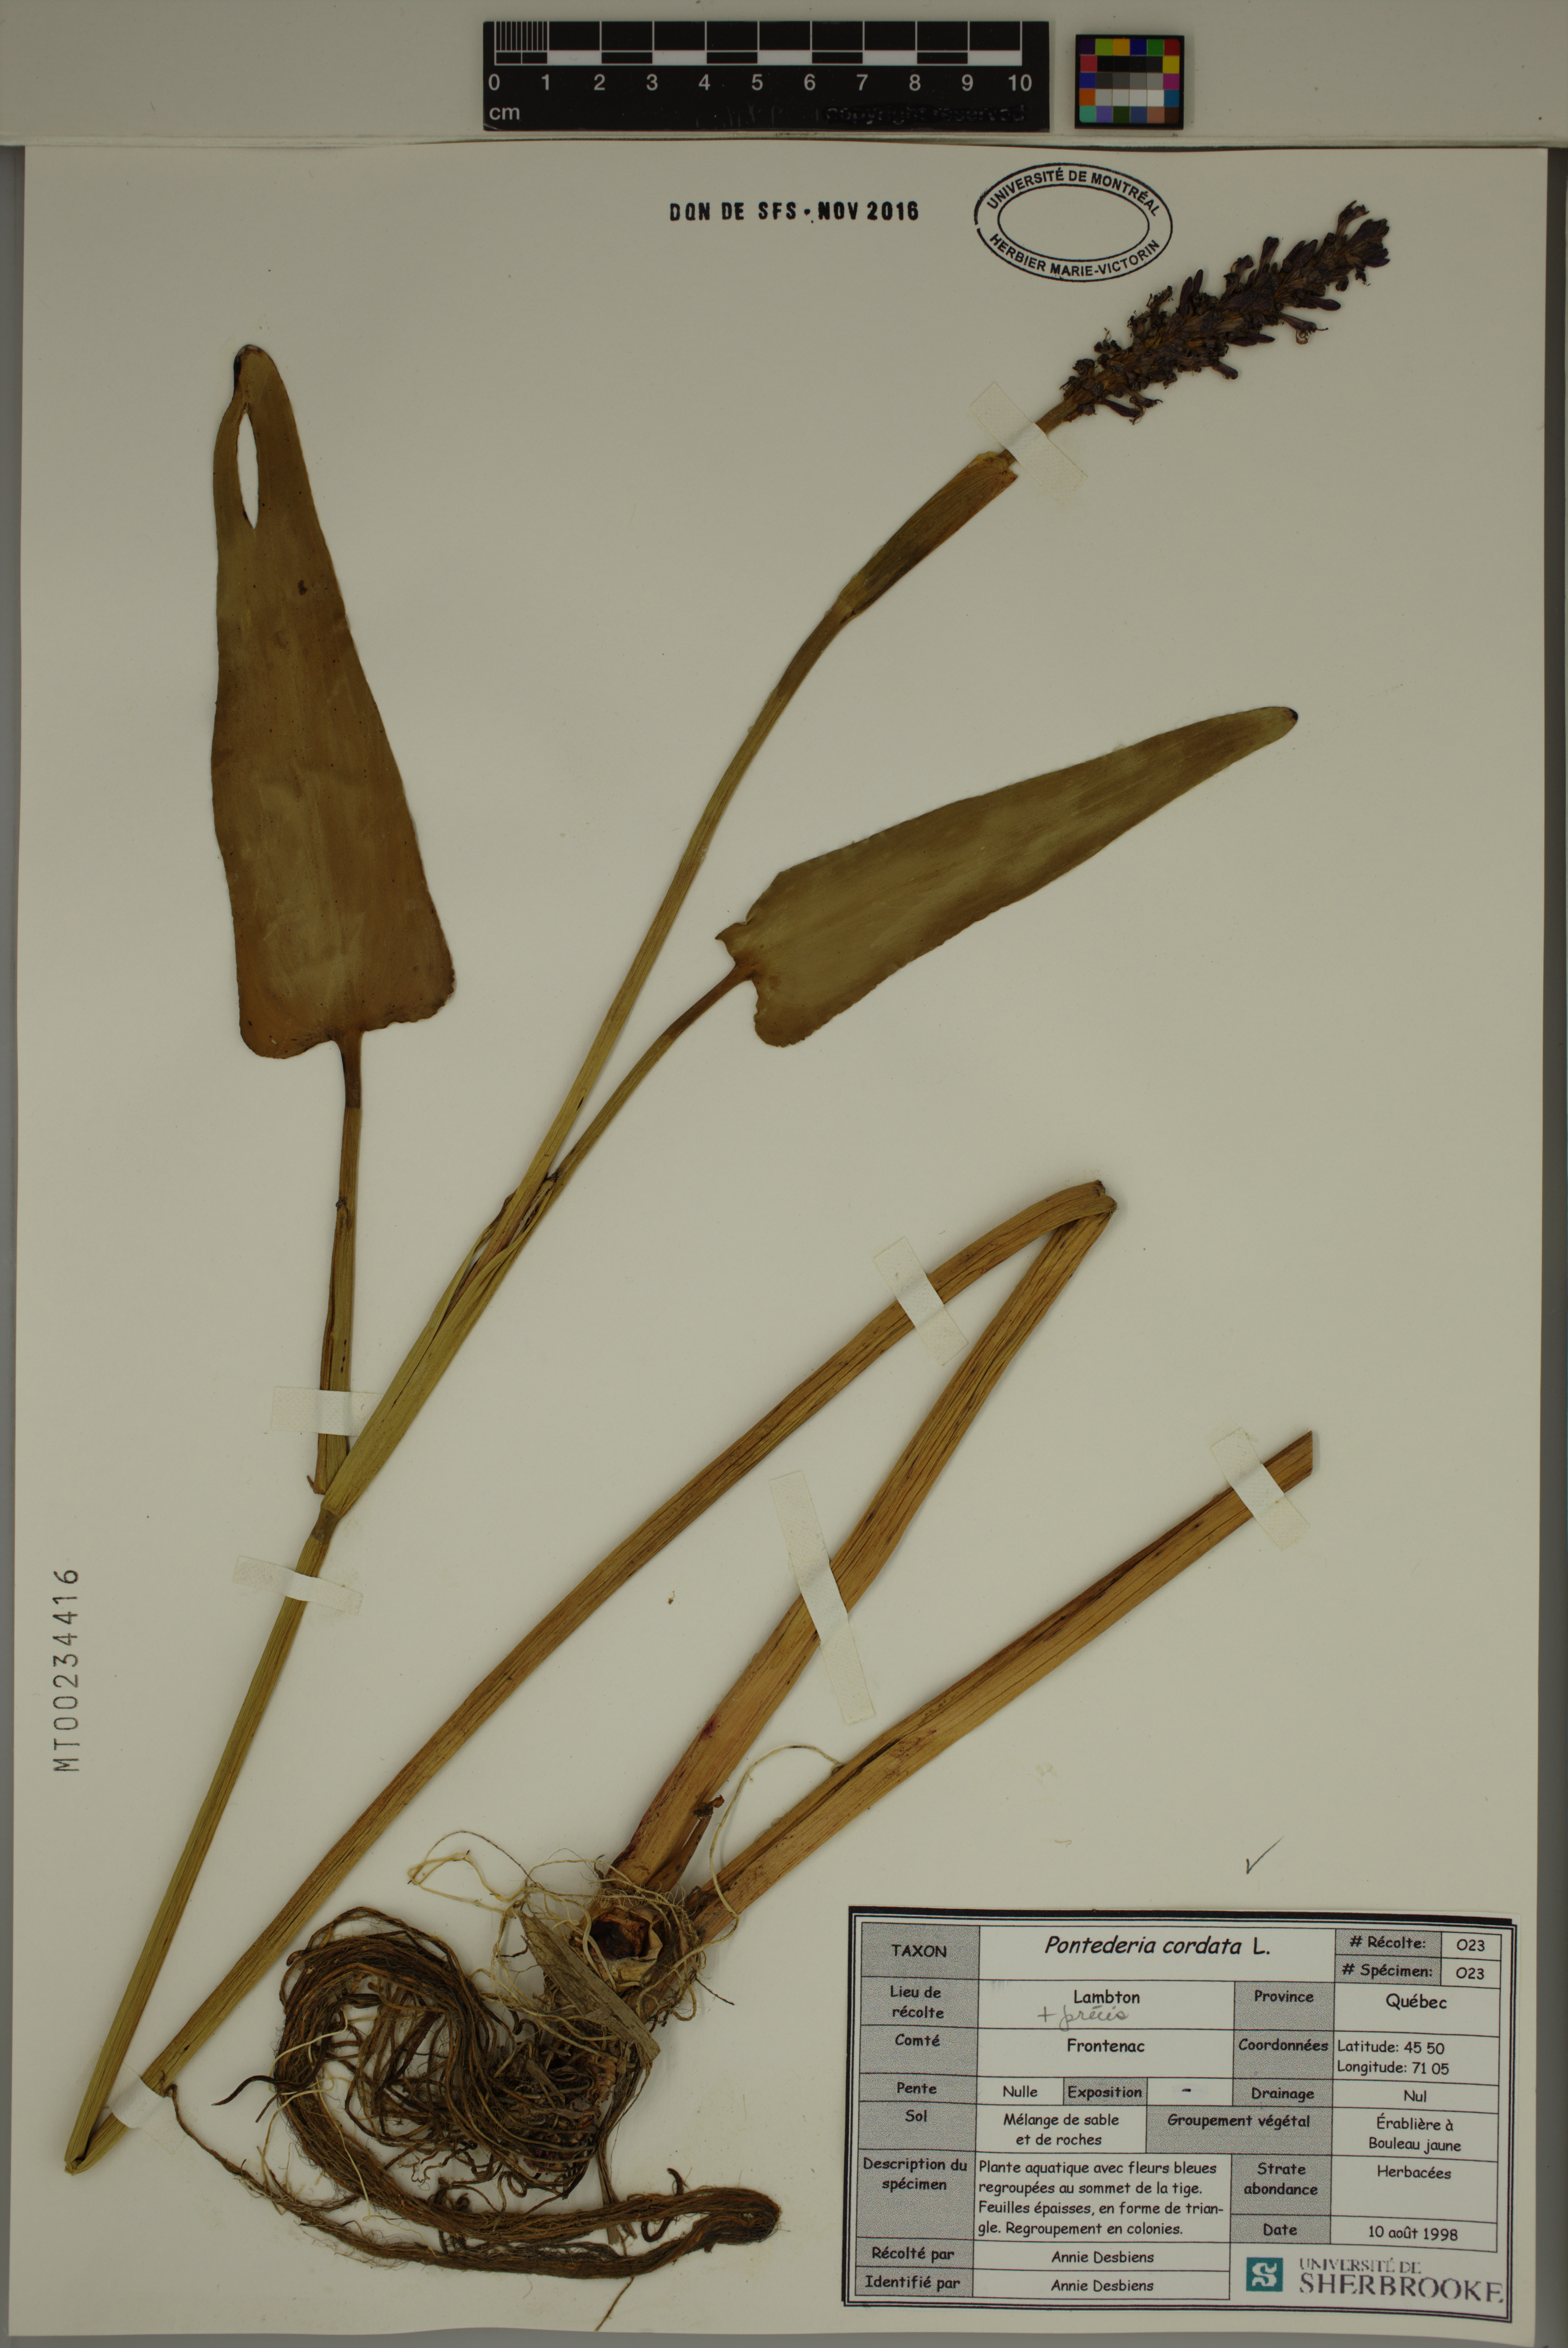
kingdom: Plantae
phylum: Tracheophyta
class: Liliopsida
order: Commelinales
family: Pontederiaceae
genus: Pontederia
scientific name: Pontederia cordata
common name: Pickerelweed
